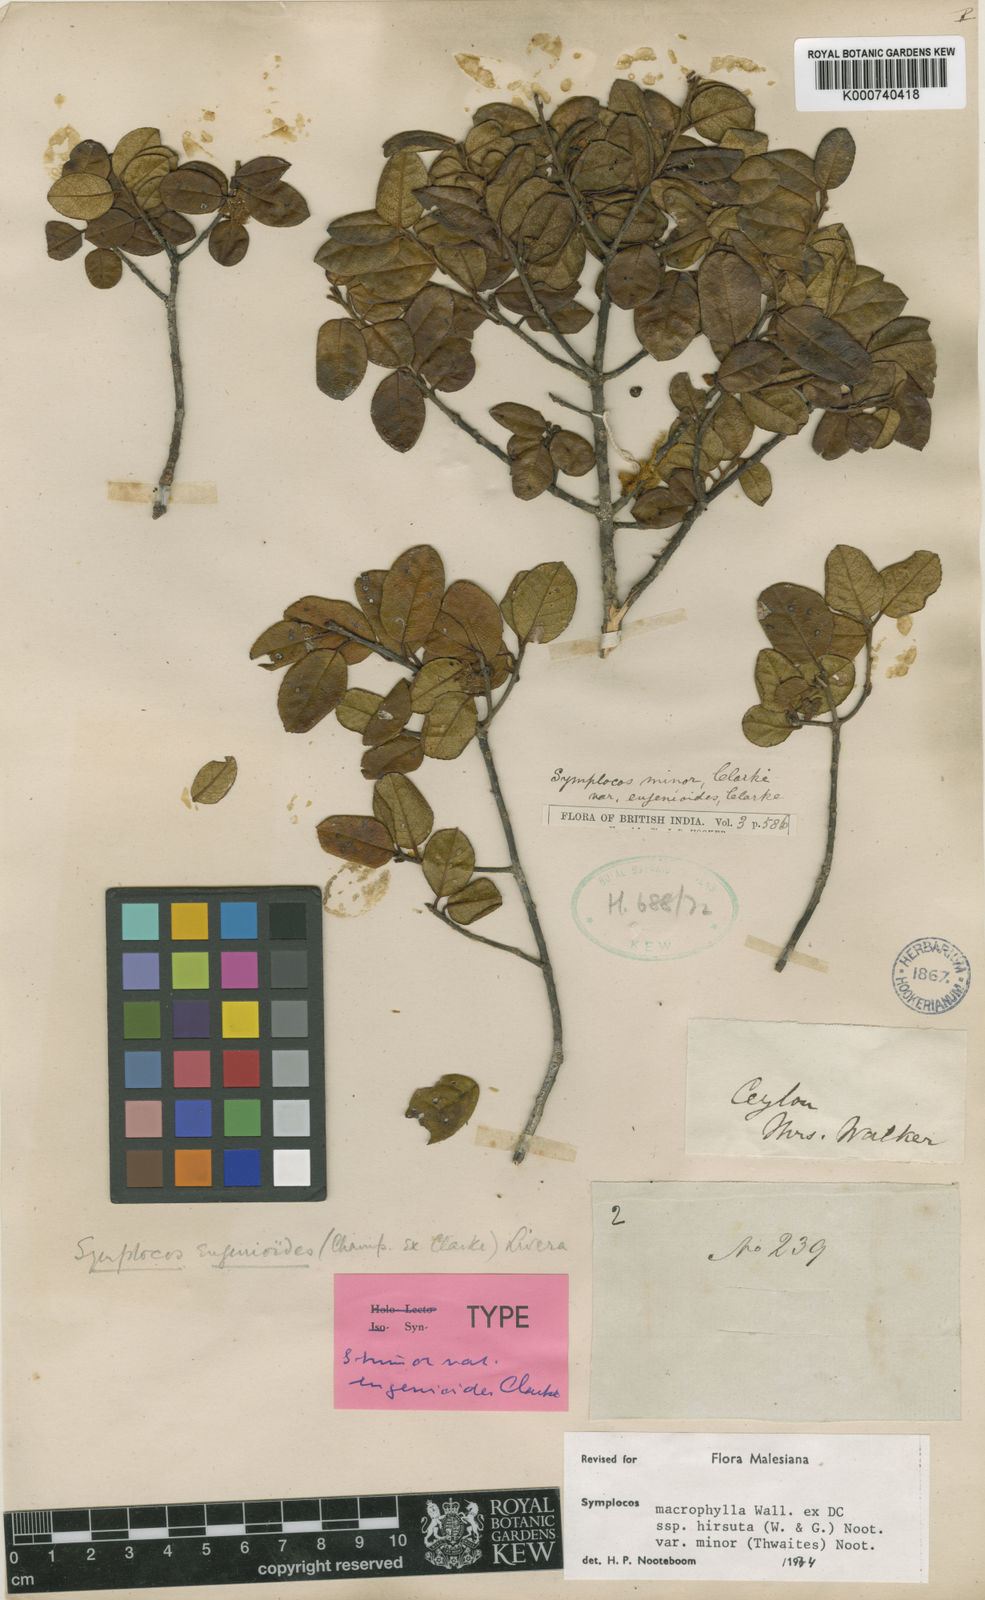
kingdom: Plantae
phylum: Tracheophyta
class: Magnoliopsida
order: Ericales
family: Symplocaceae
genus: Symplocos
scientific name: Symplocos
